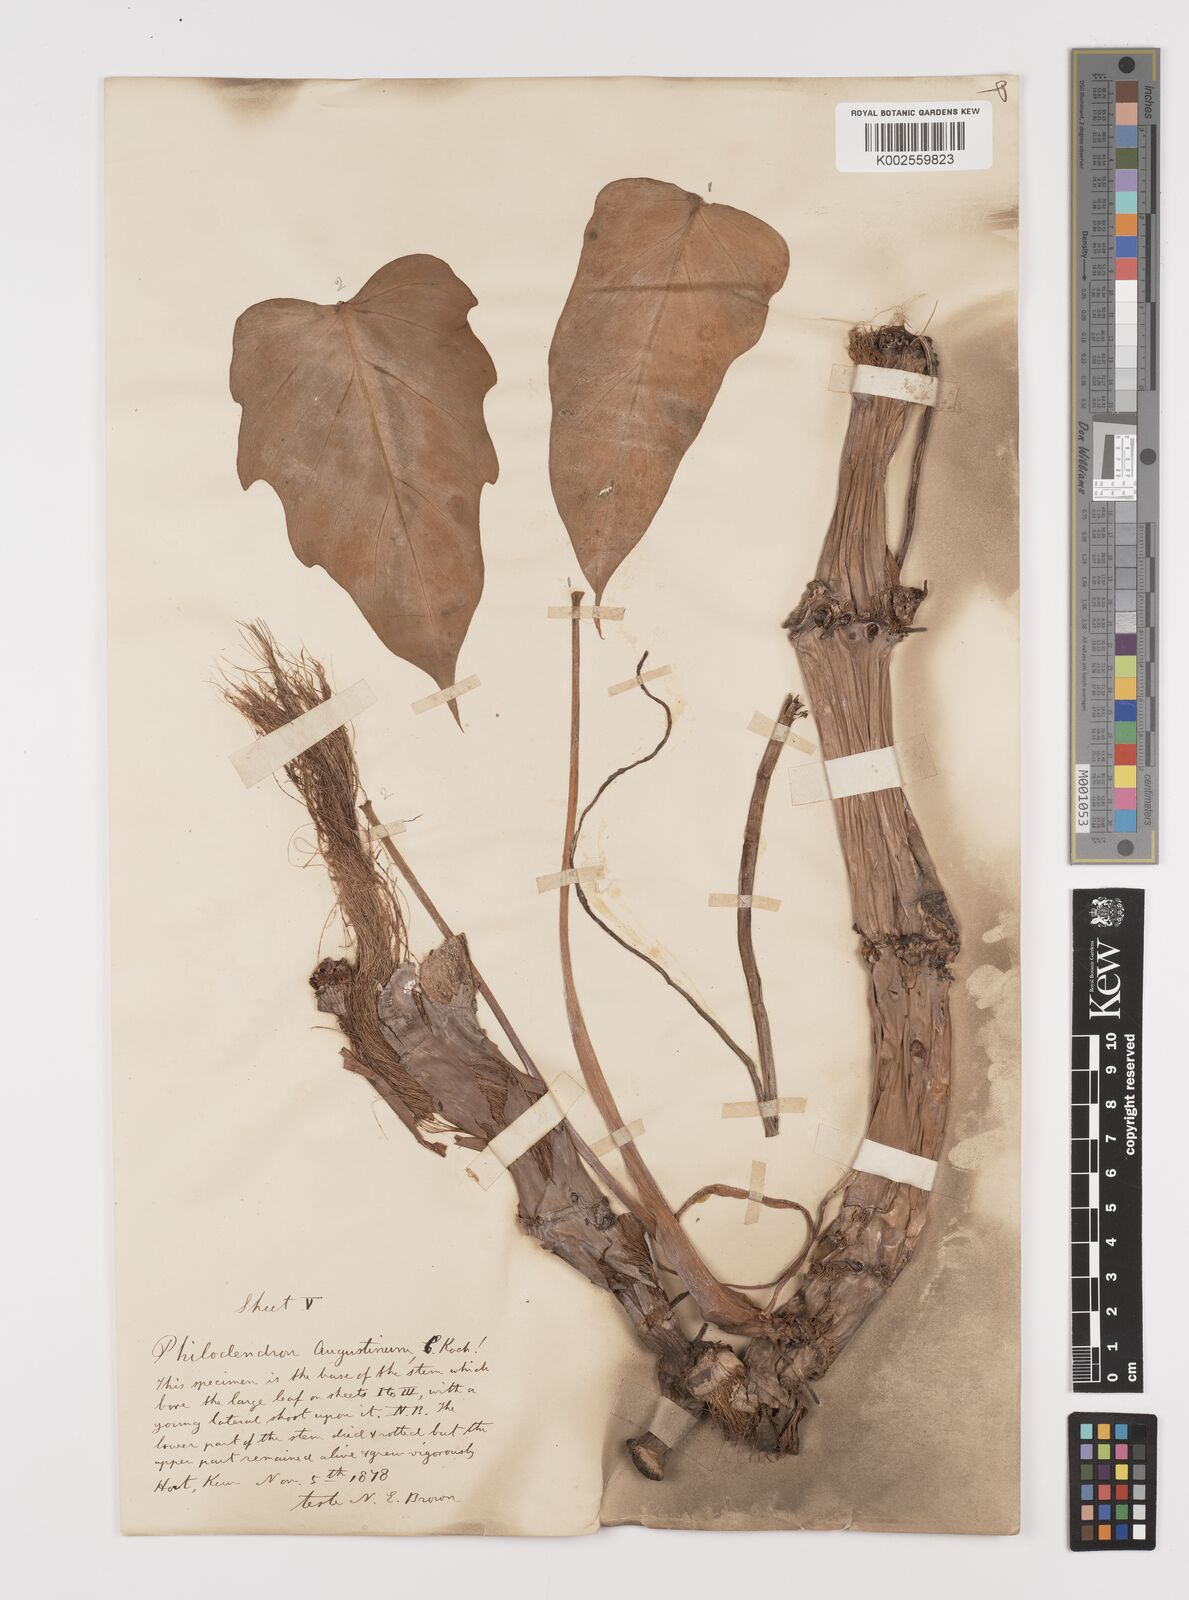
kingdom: Plantae
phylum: Tracheophyta
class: Liliopsida
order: Alismatales
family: Araceae
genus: Philodendron
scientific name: Philodendron radiatum
